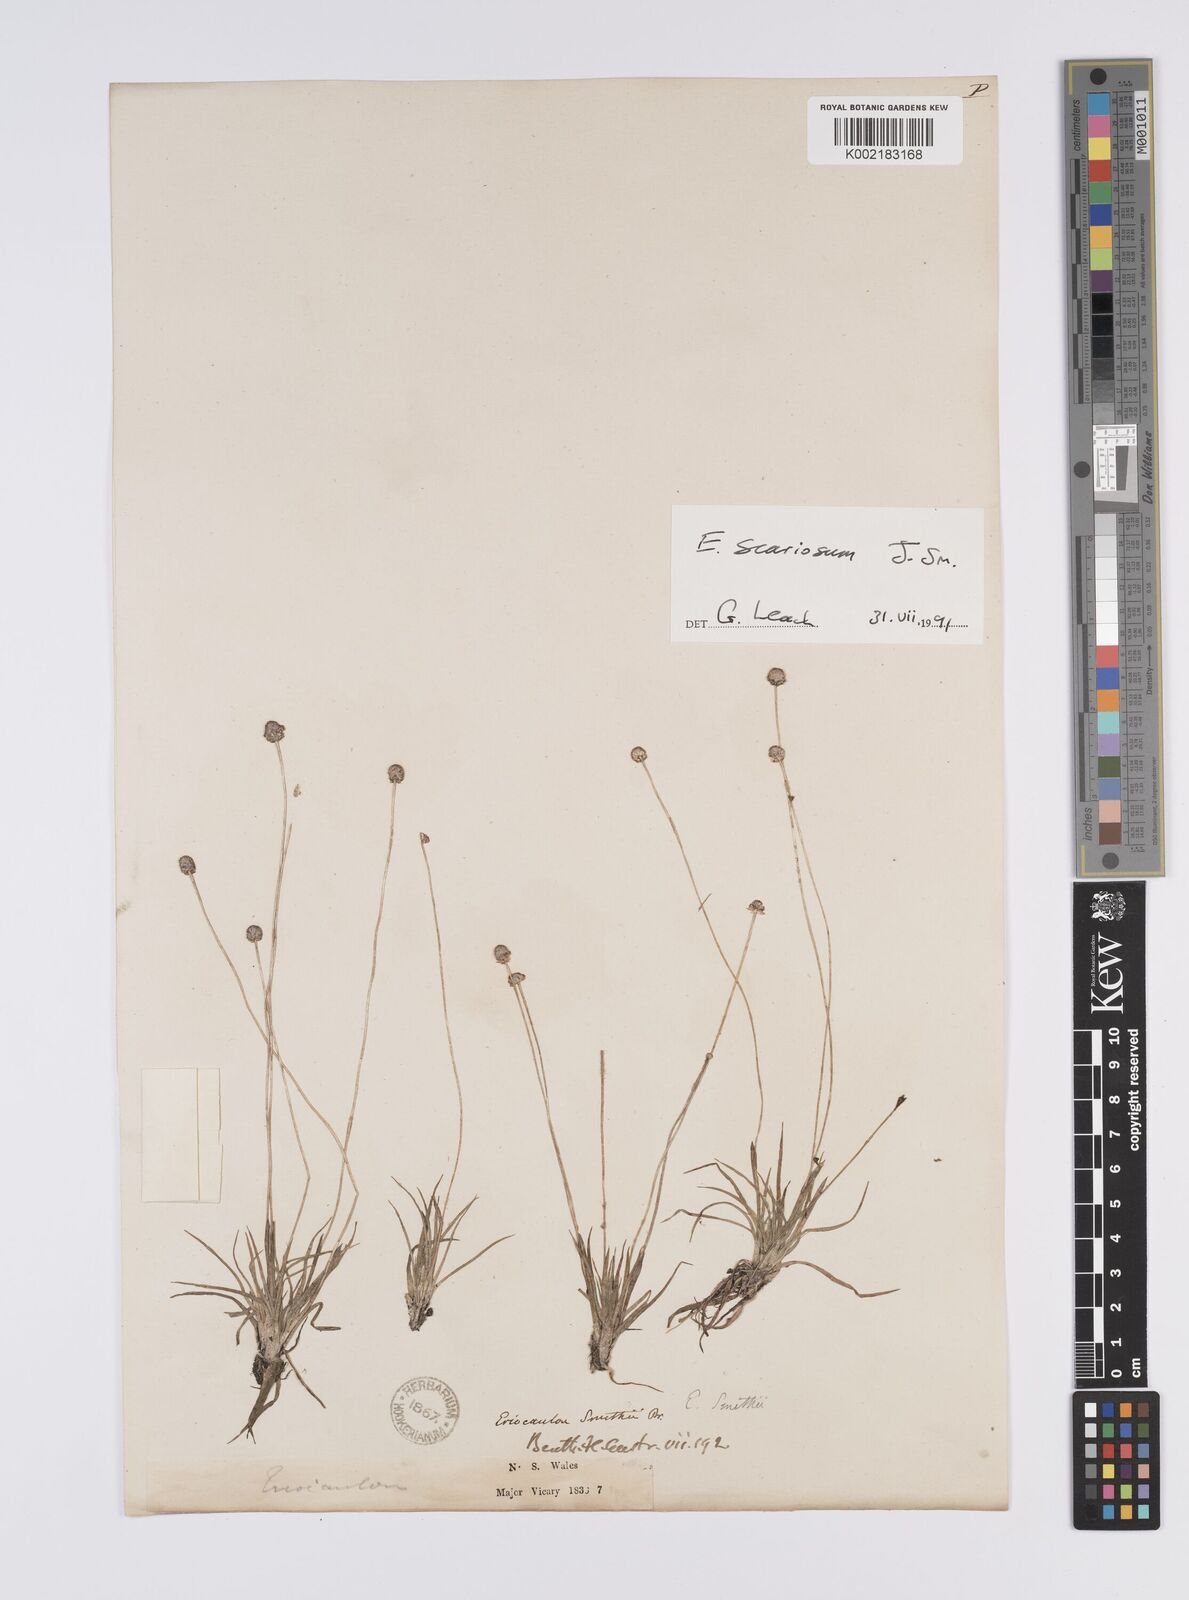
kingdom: Plantae
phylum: Tracheophyta
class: Liliopsida
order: Poales
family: Eriocaulaceae
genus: Eriocaulon
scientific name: Eriocaulon scariosum
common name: Rough pipewort
